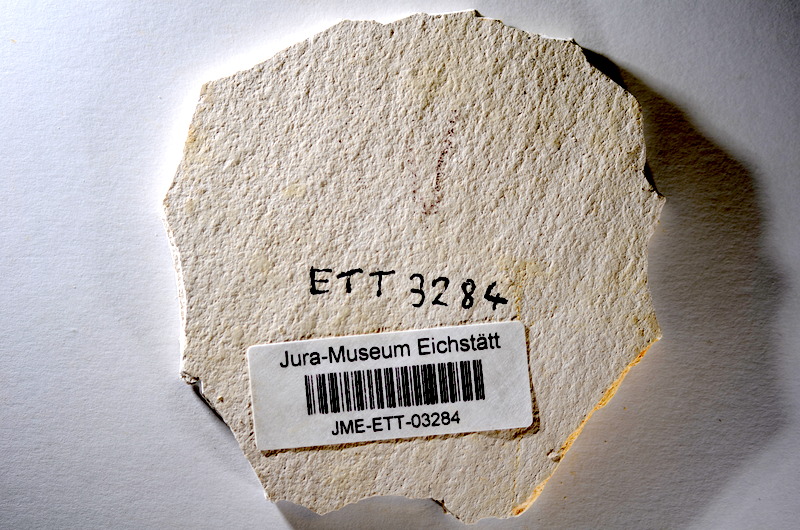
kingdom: Animalia
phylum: Chordata
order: Salmoniformes
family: Orthogonikleithridae
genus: Orthogonikleithrus
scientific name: Orthogonikleithrus hoelli
